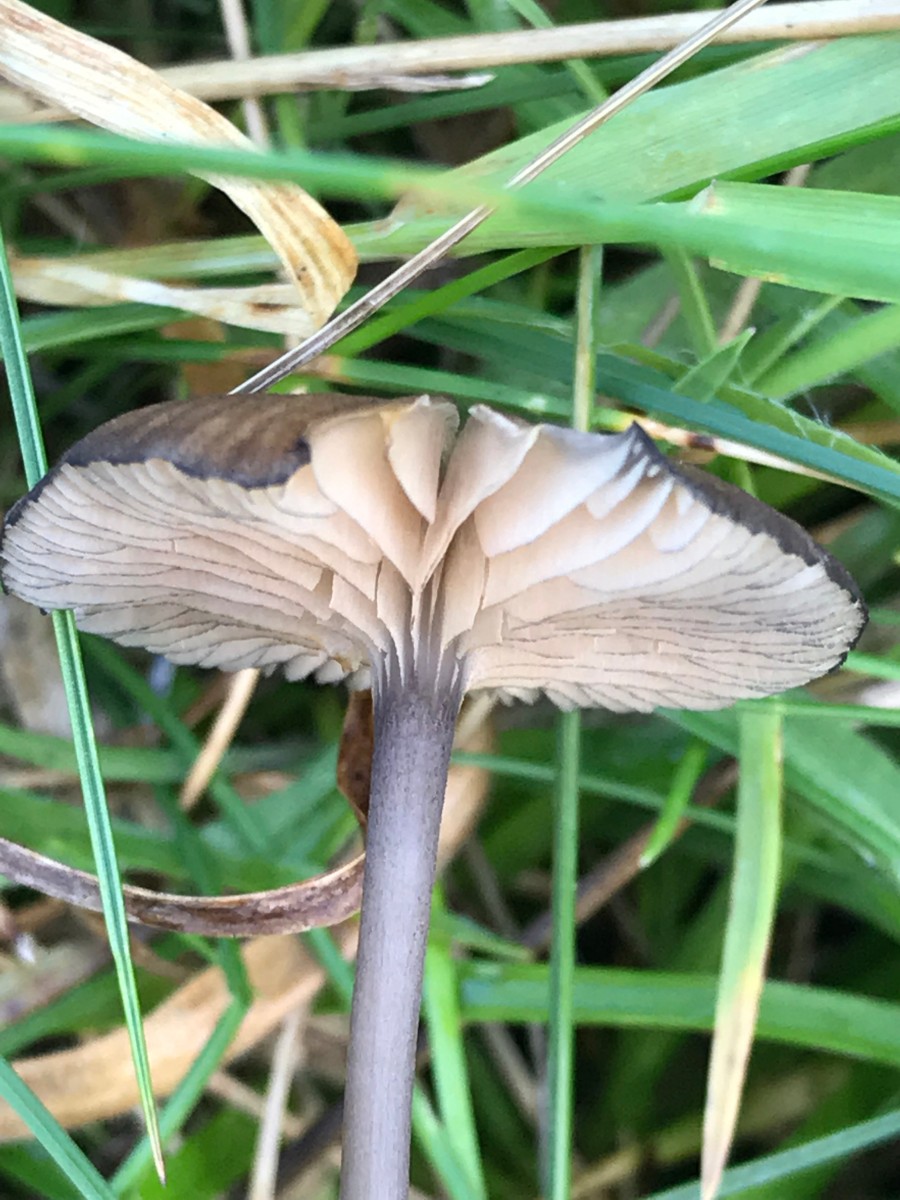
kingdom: Fungi
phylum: Basidiomycota
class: Agaricomycetes
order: Agaricales
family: Entolomataceae
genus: Entoloma
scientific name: Entoloma
